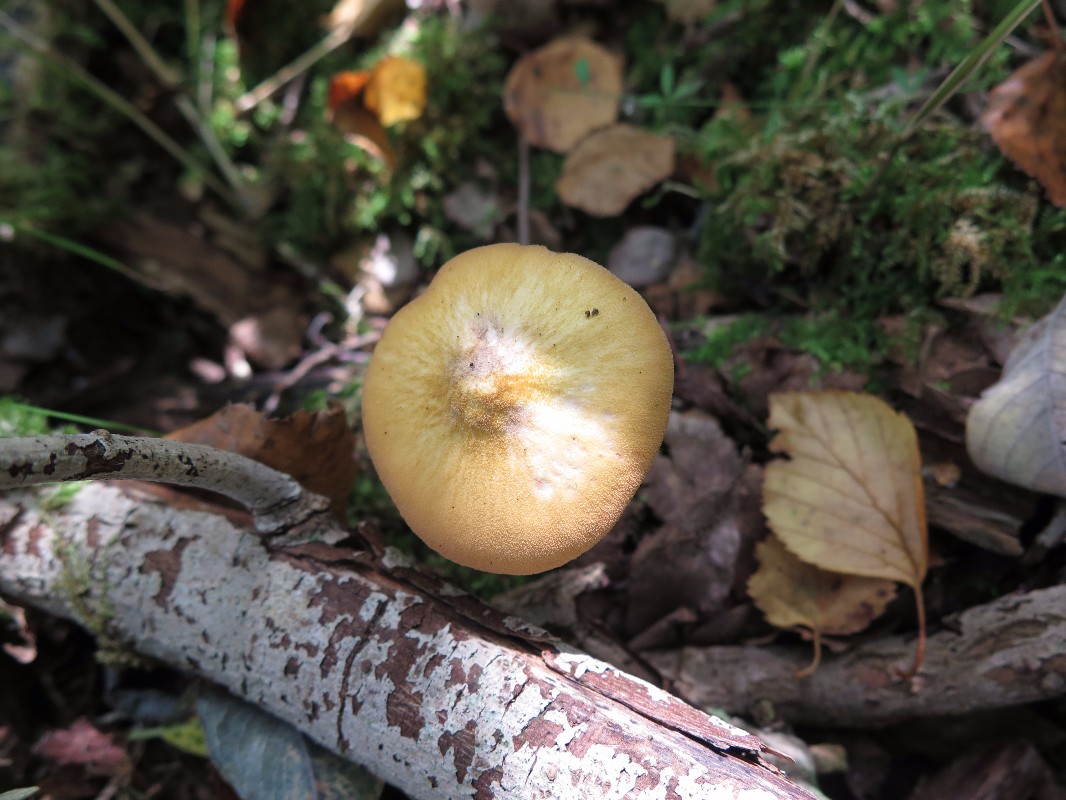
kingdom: Fungi
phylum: Basidiomycota
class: Agaricomycetes
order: Agaricales
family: Pluteaceae
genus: Pluteus
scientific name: Pluteus leoninus
